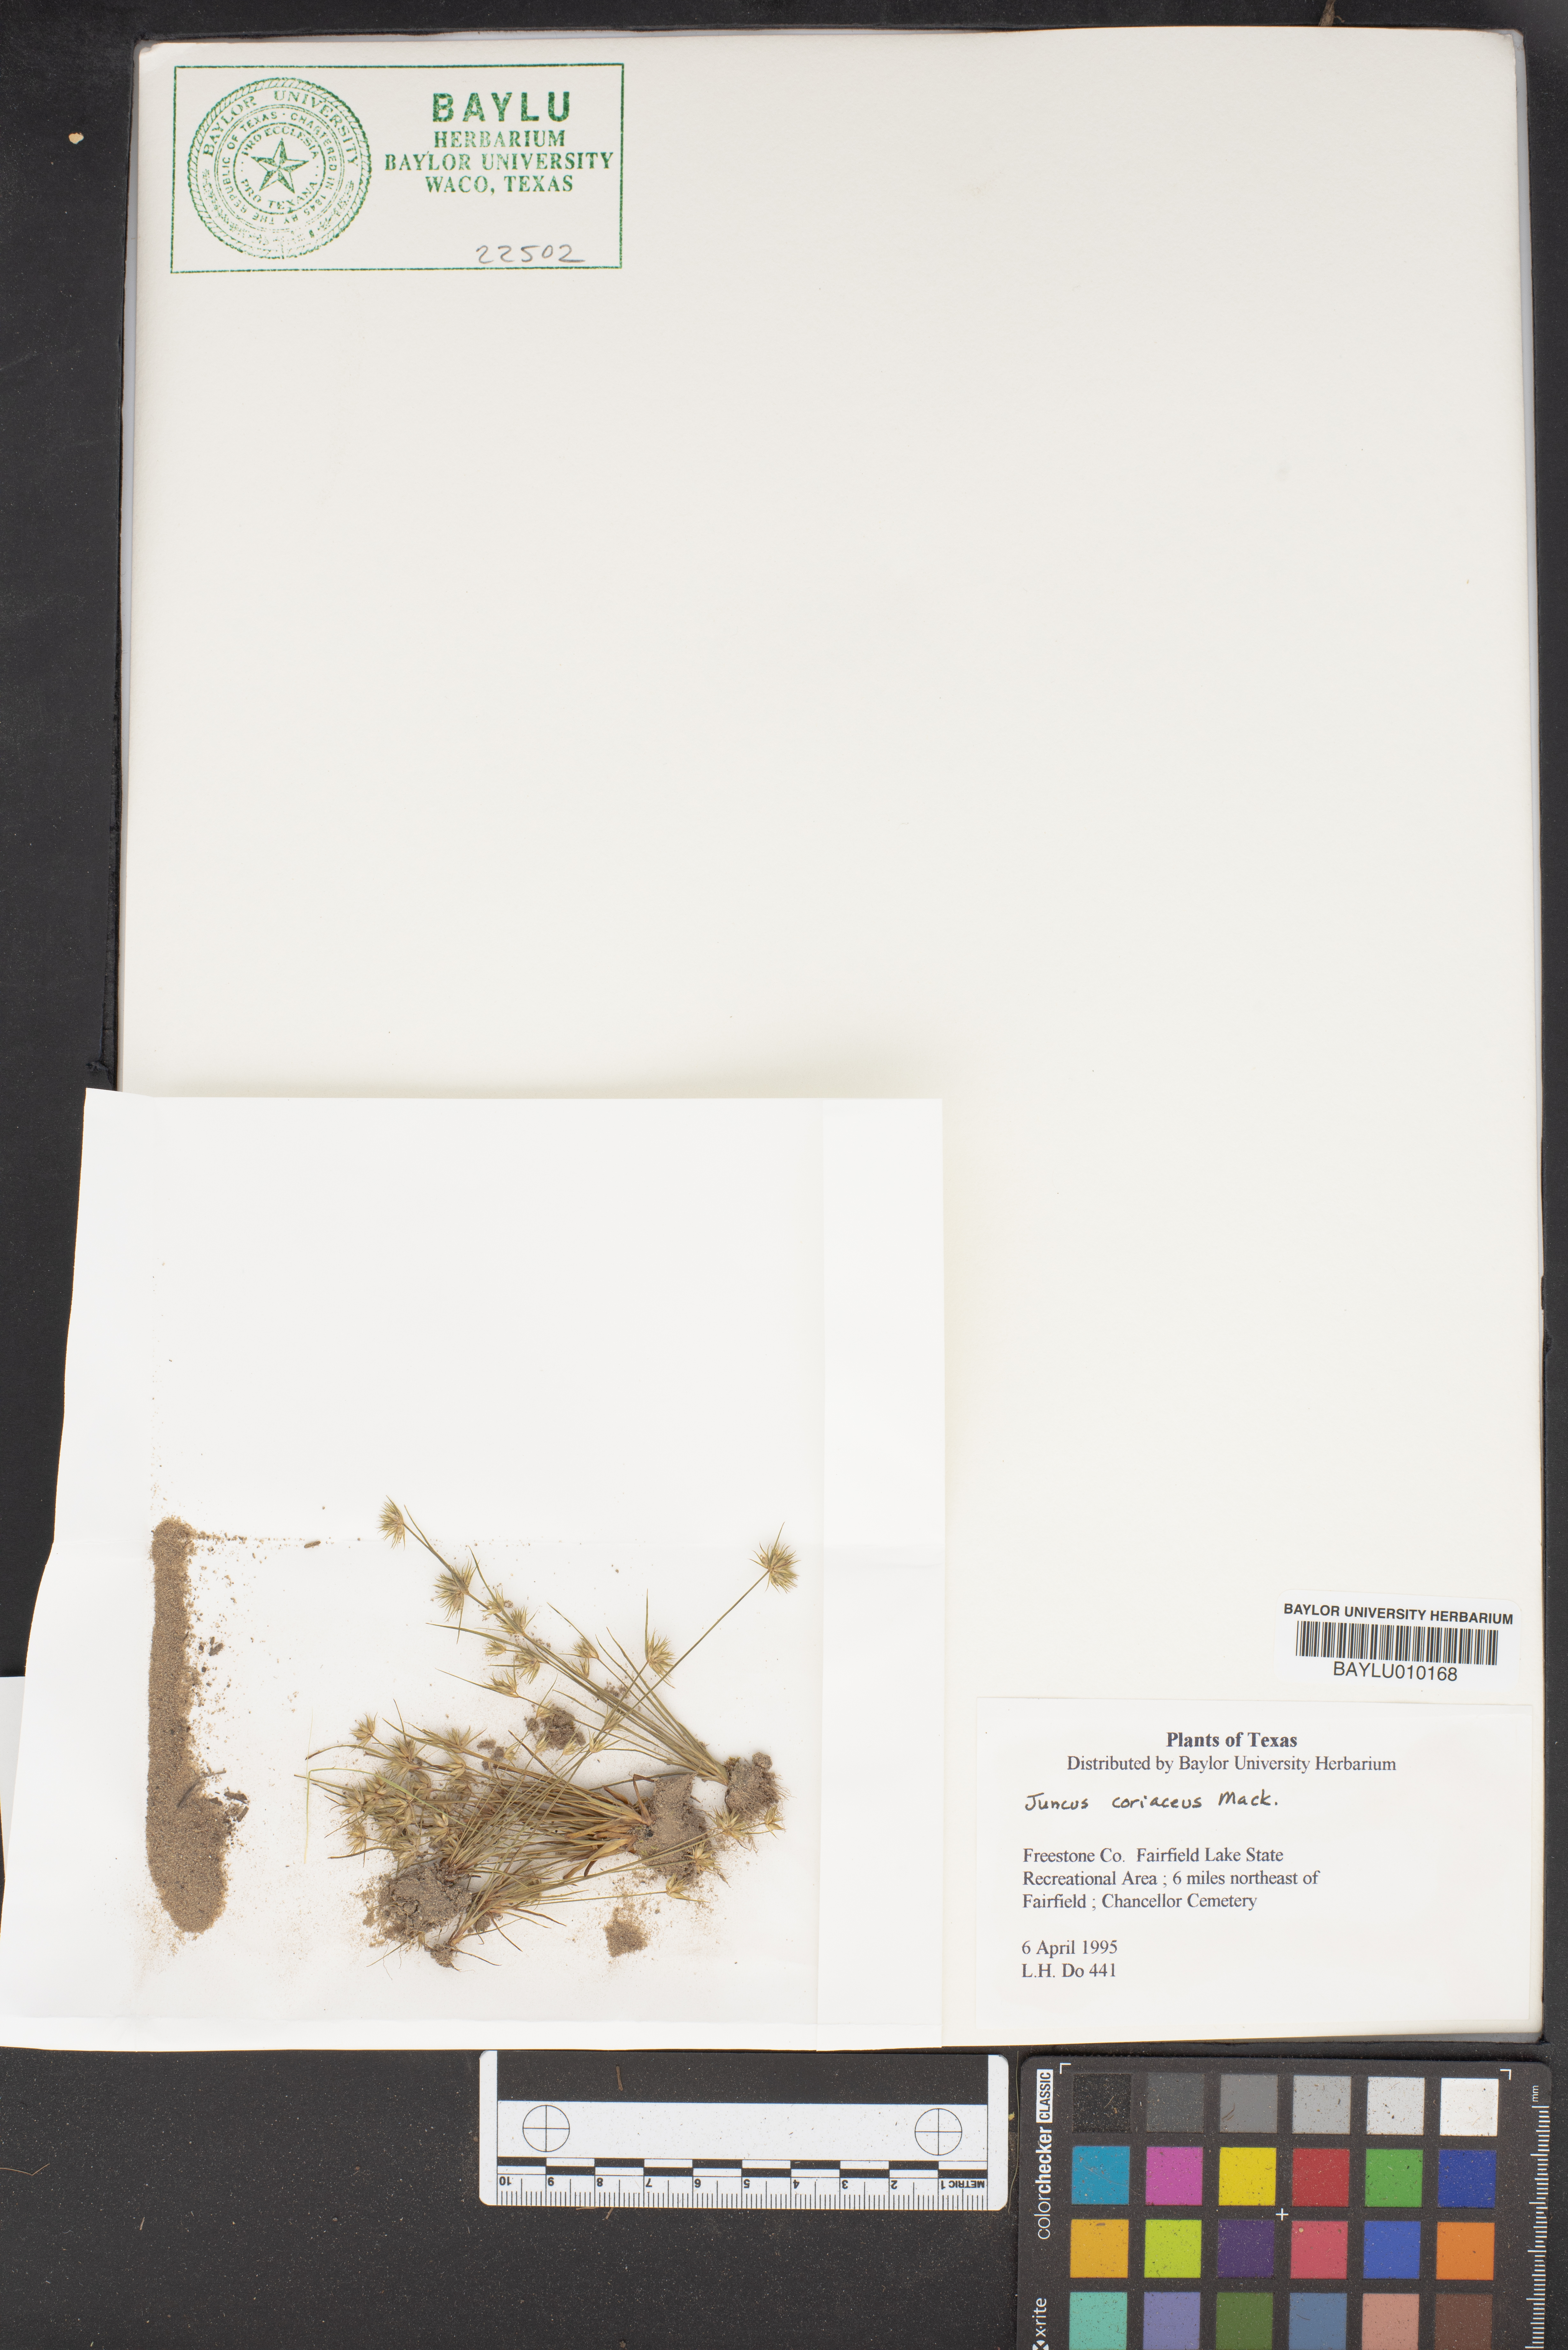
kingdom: Plantae
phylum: Tracheophyta
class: Liliopsida
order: Poales
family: Juncaceae
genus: Juncus
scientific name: Juncus coriaceus
